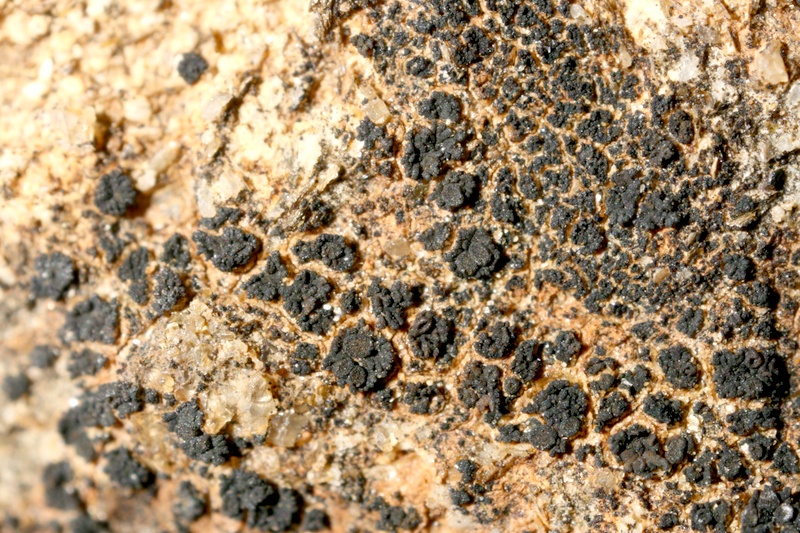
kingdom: Fungi
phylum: Ascomycota
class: Lichinomycetes
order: Lichinales
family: Lichinaceae
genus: Lichinella
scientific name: Lichinella granulosa
